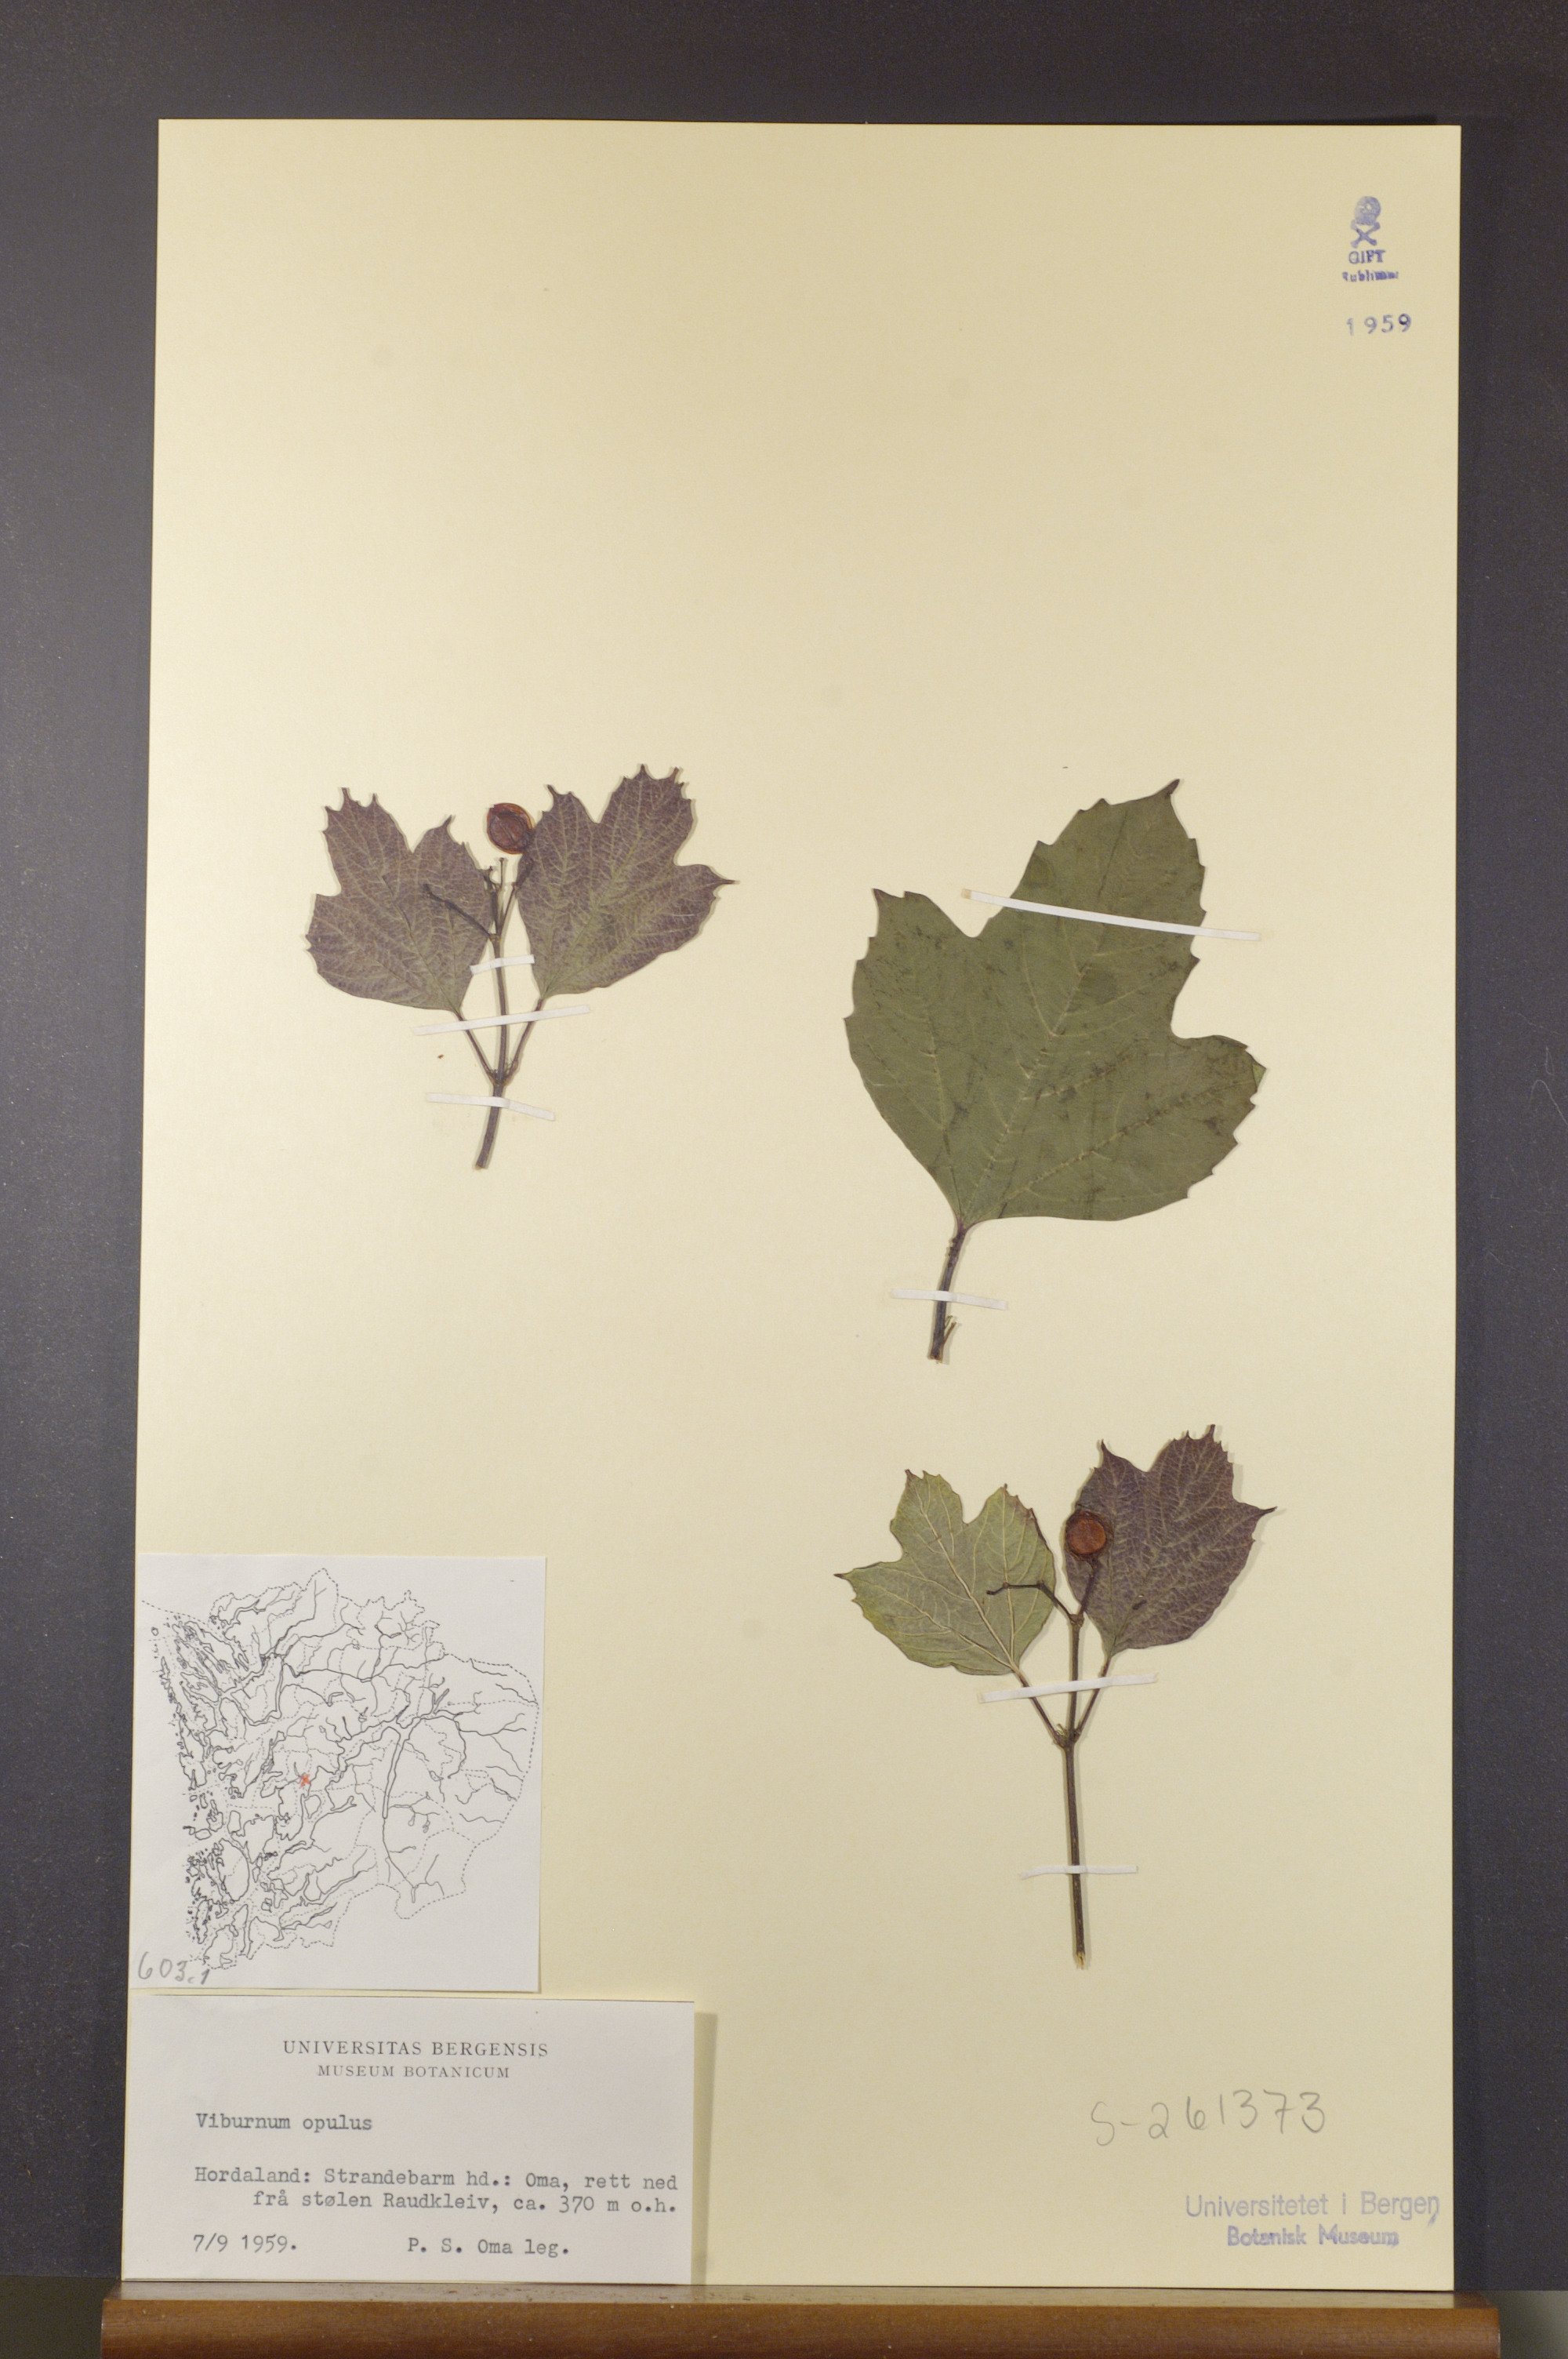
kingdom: Plantae
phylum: Tracheophyta
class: Magnoliopsida
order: Dipsacales
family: Viburnaceae
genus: Viburnum
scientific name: Viburnum opulus
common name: Guelder-rose
